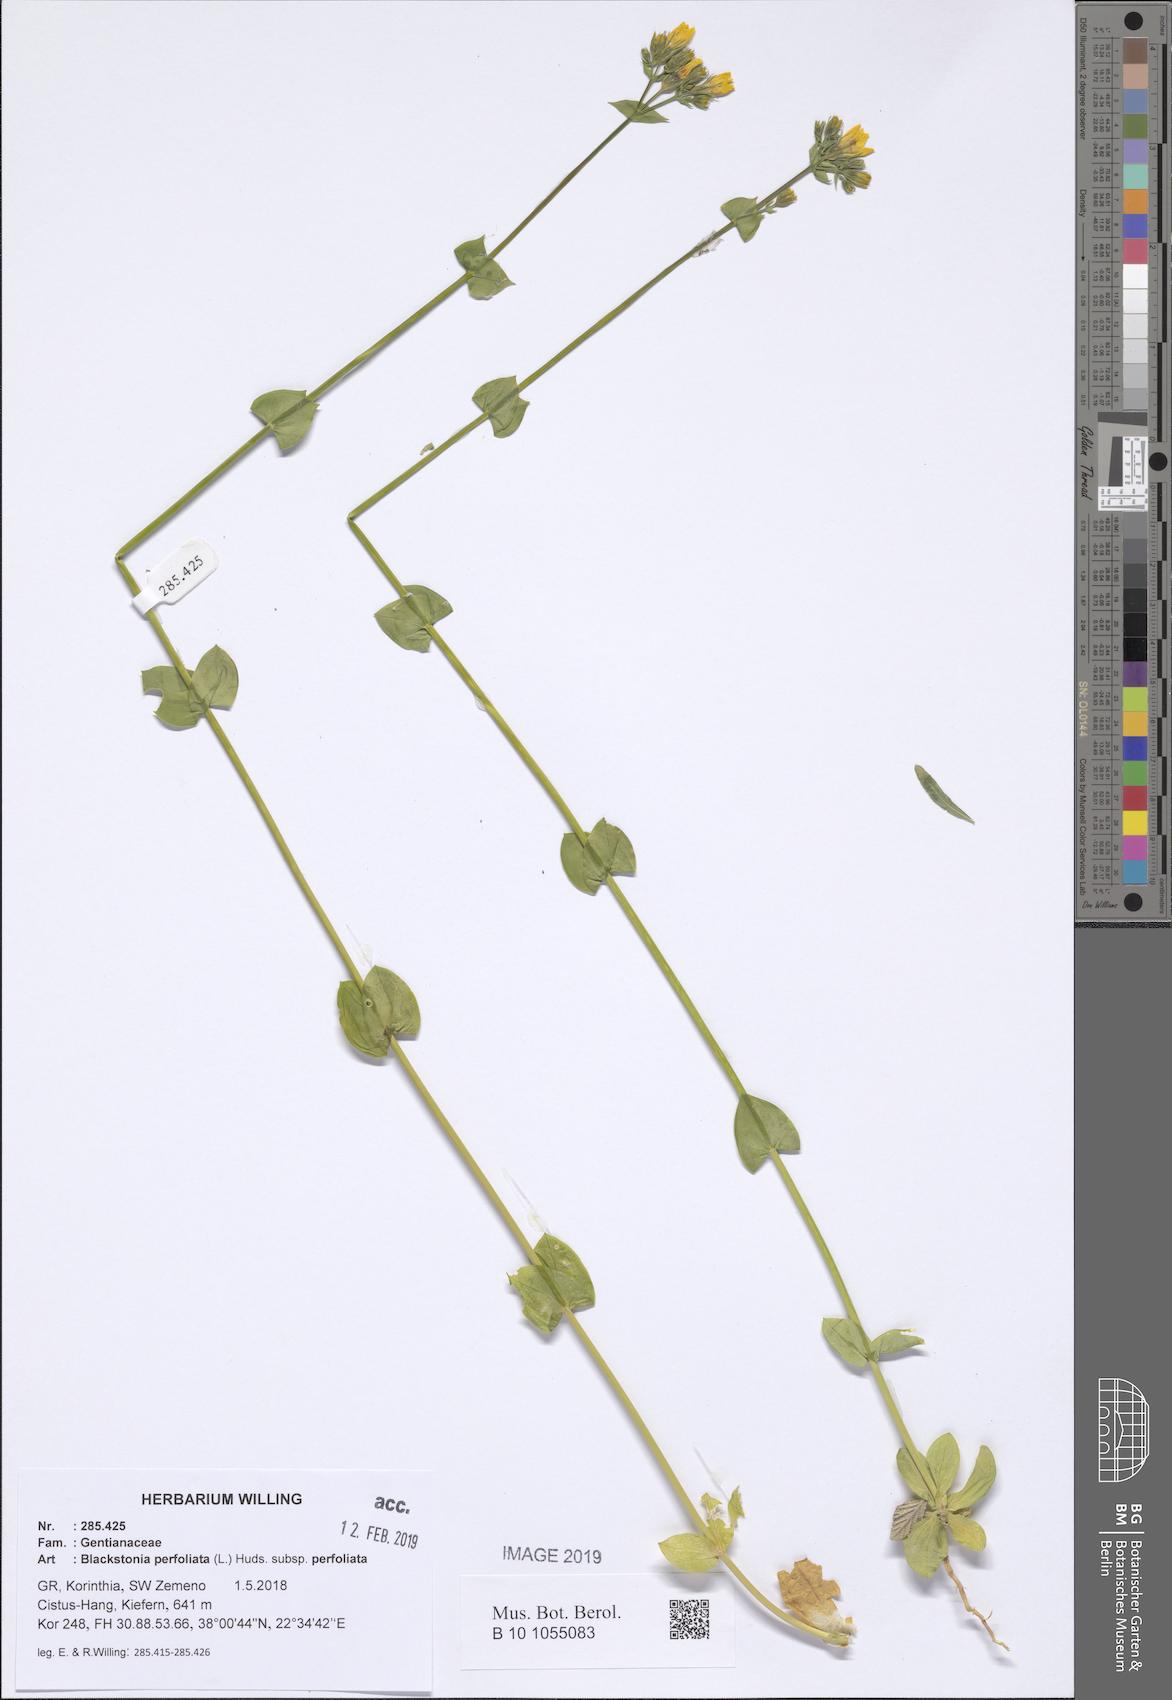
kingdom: Plantae
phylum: Tracheophyta
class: Magnoliopsida
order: Gentianales
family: Gentianaceae
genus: Blackstonia
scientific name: Blackstonia perfoliata
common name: Yellow-wort
